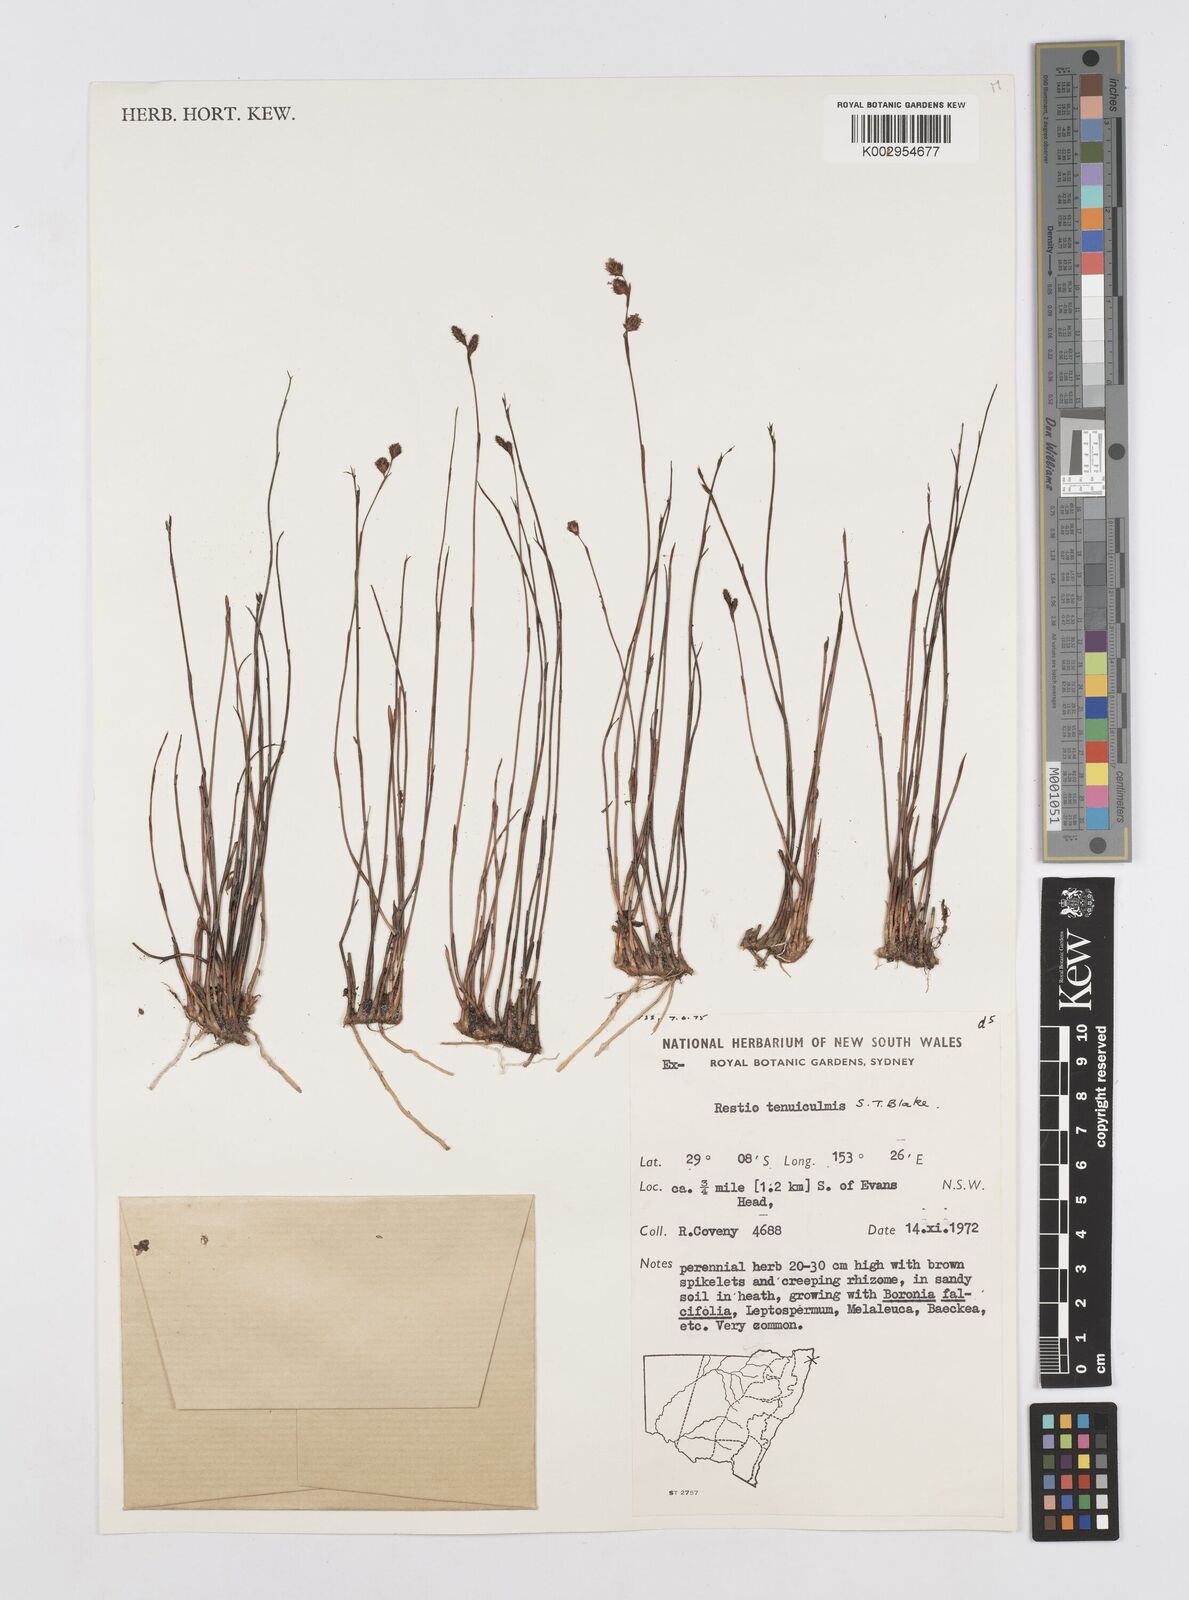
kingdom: Plantae
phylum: Tracheophyta
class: Liliopsida
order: Poales
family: Restionaceae
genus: Baloskion
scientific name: Baloskion tenuiculme
